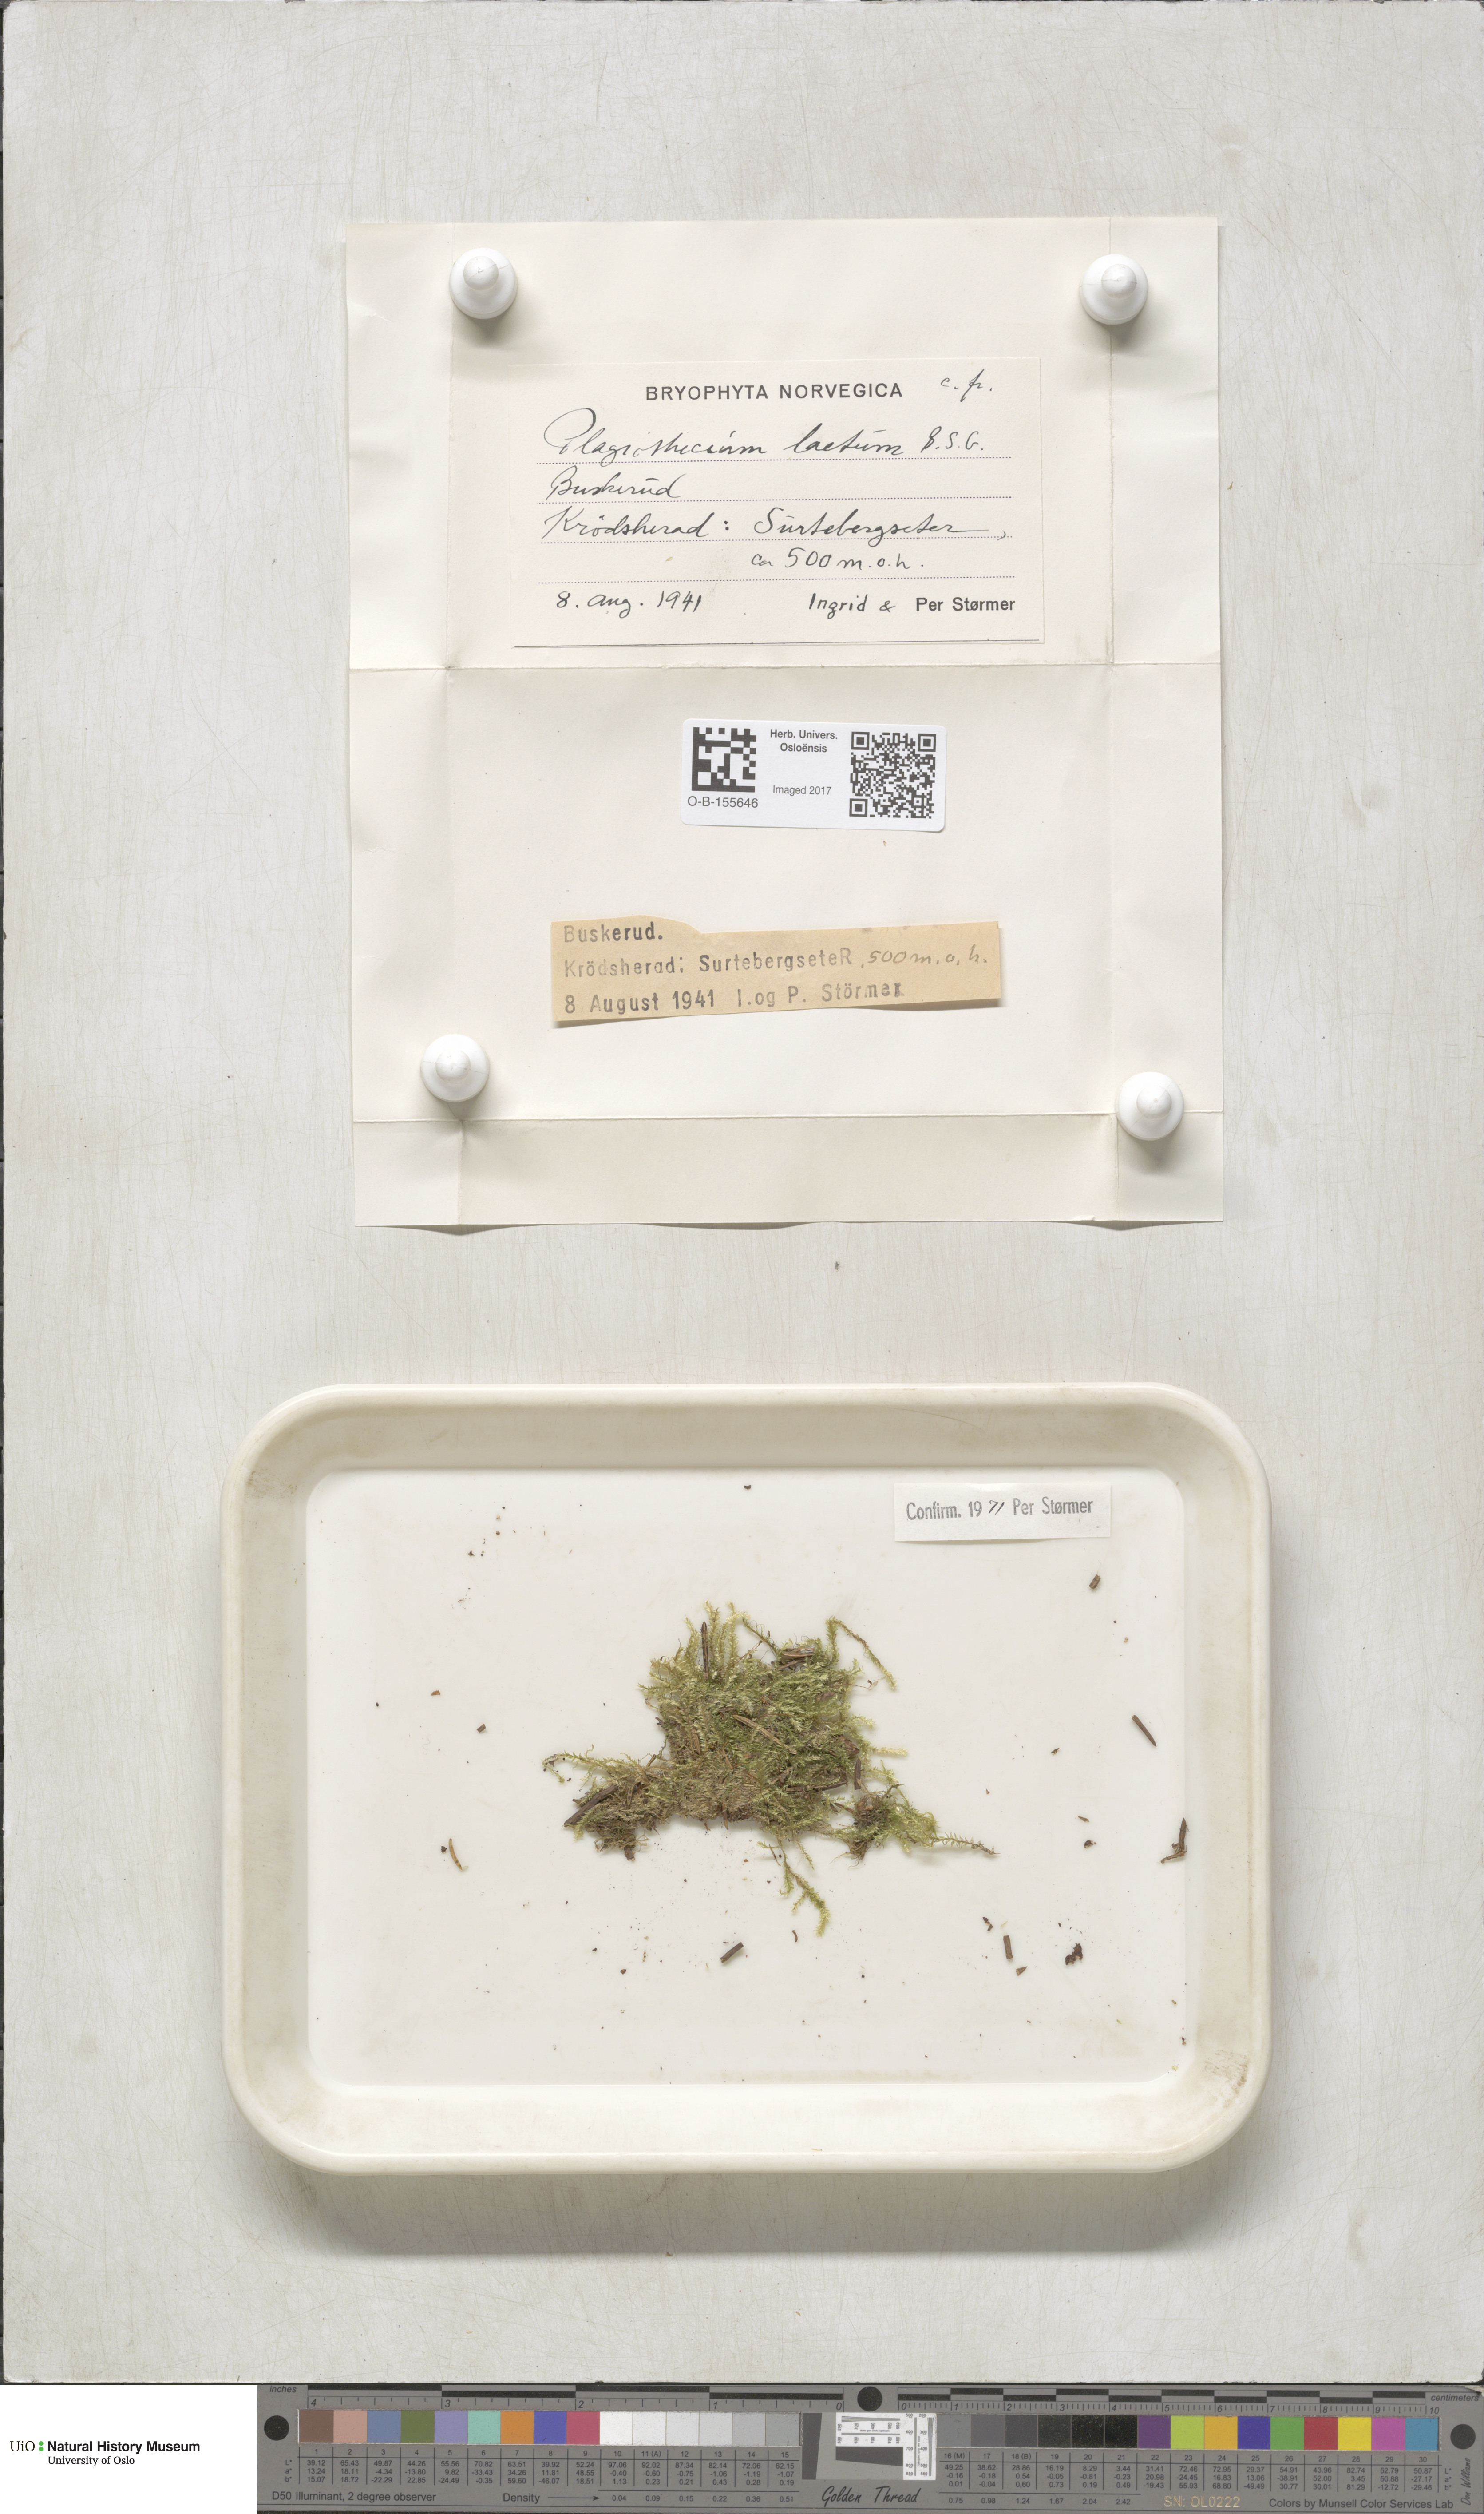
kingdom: Plantae
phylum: Bryophyta
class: Bryopsida
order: Hypnales
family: Plagiotheciaceae
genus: Plagiothecium
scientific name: Plagiothecium laetum
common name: Bright silk moss
